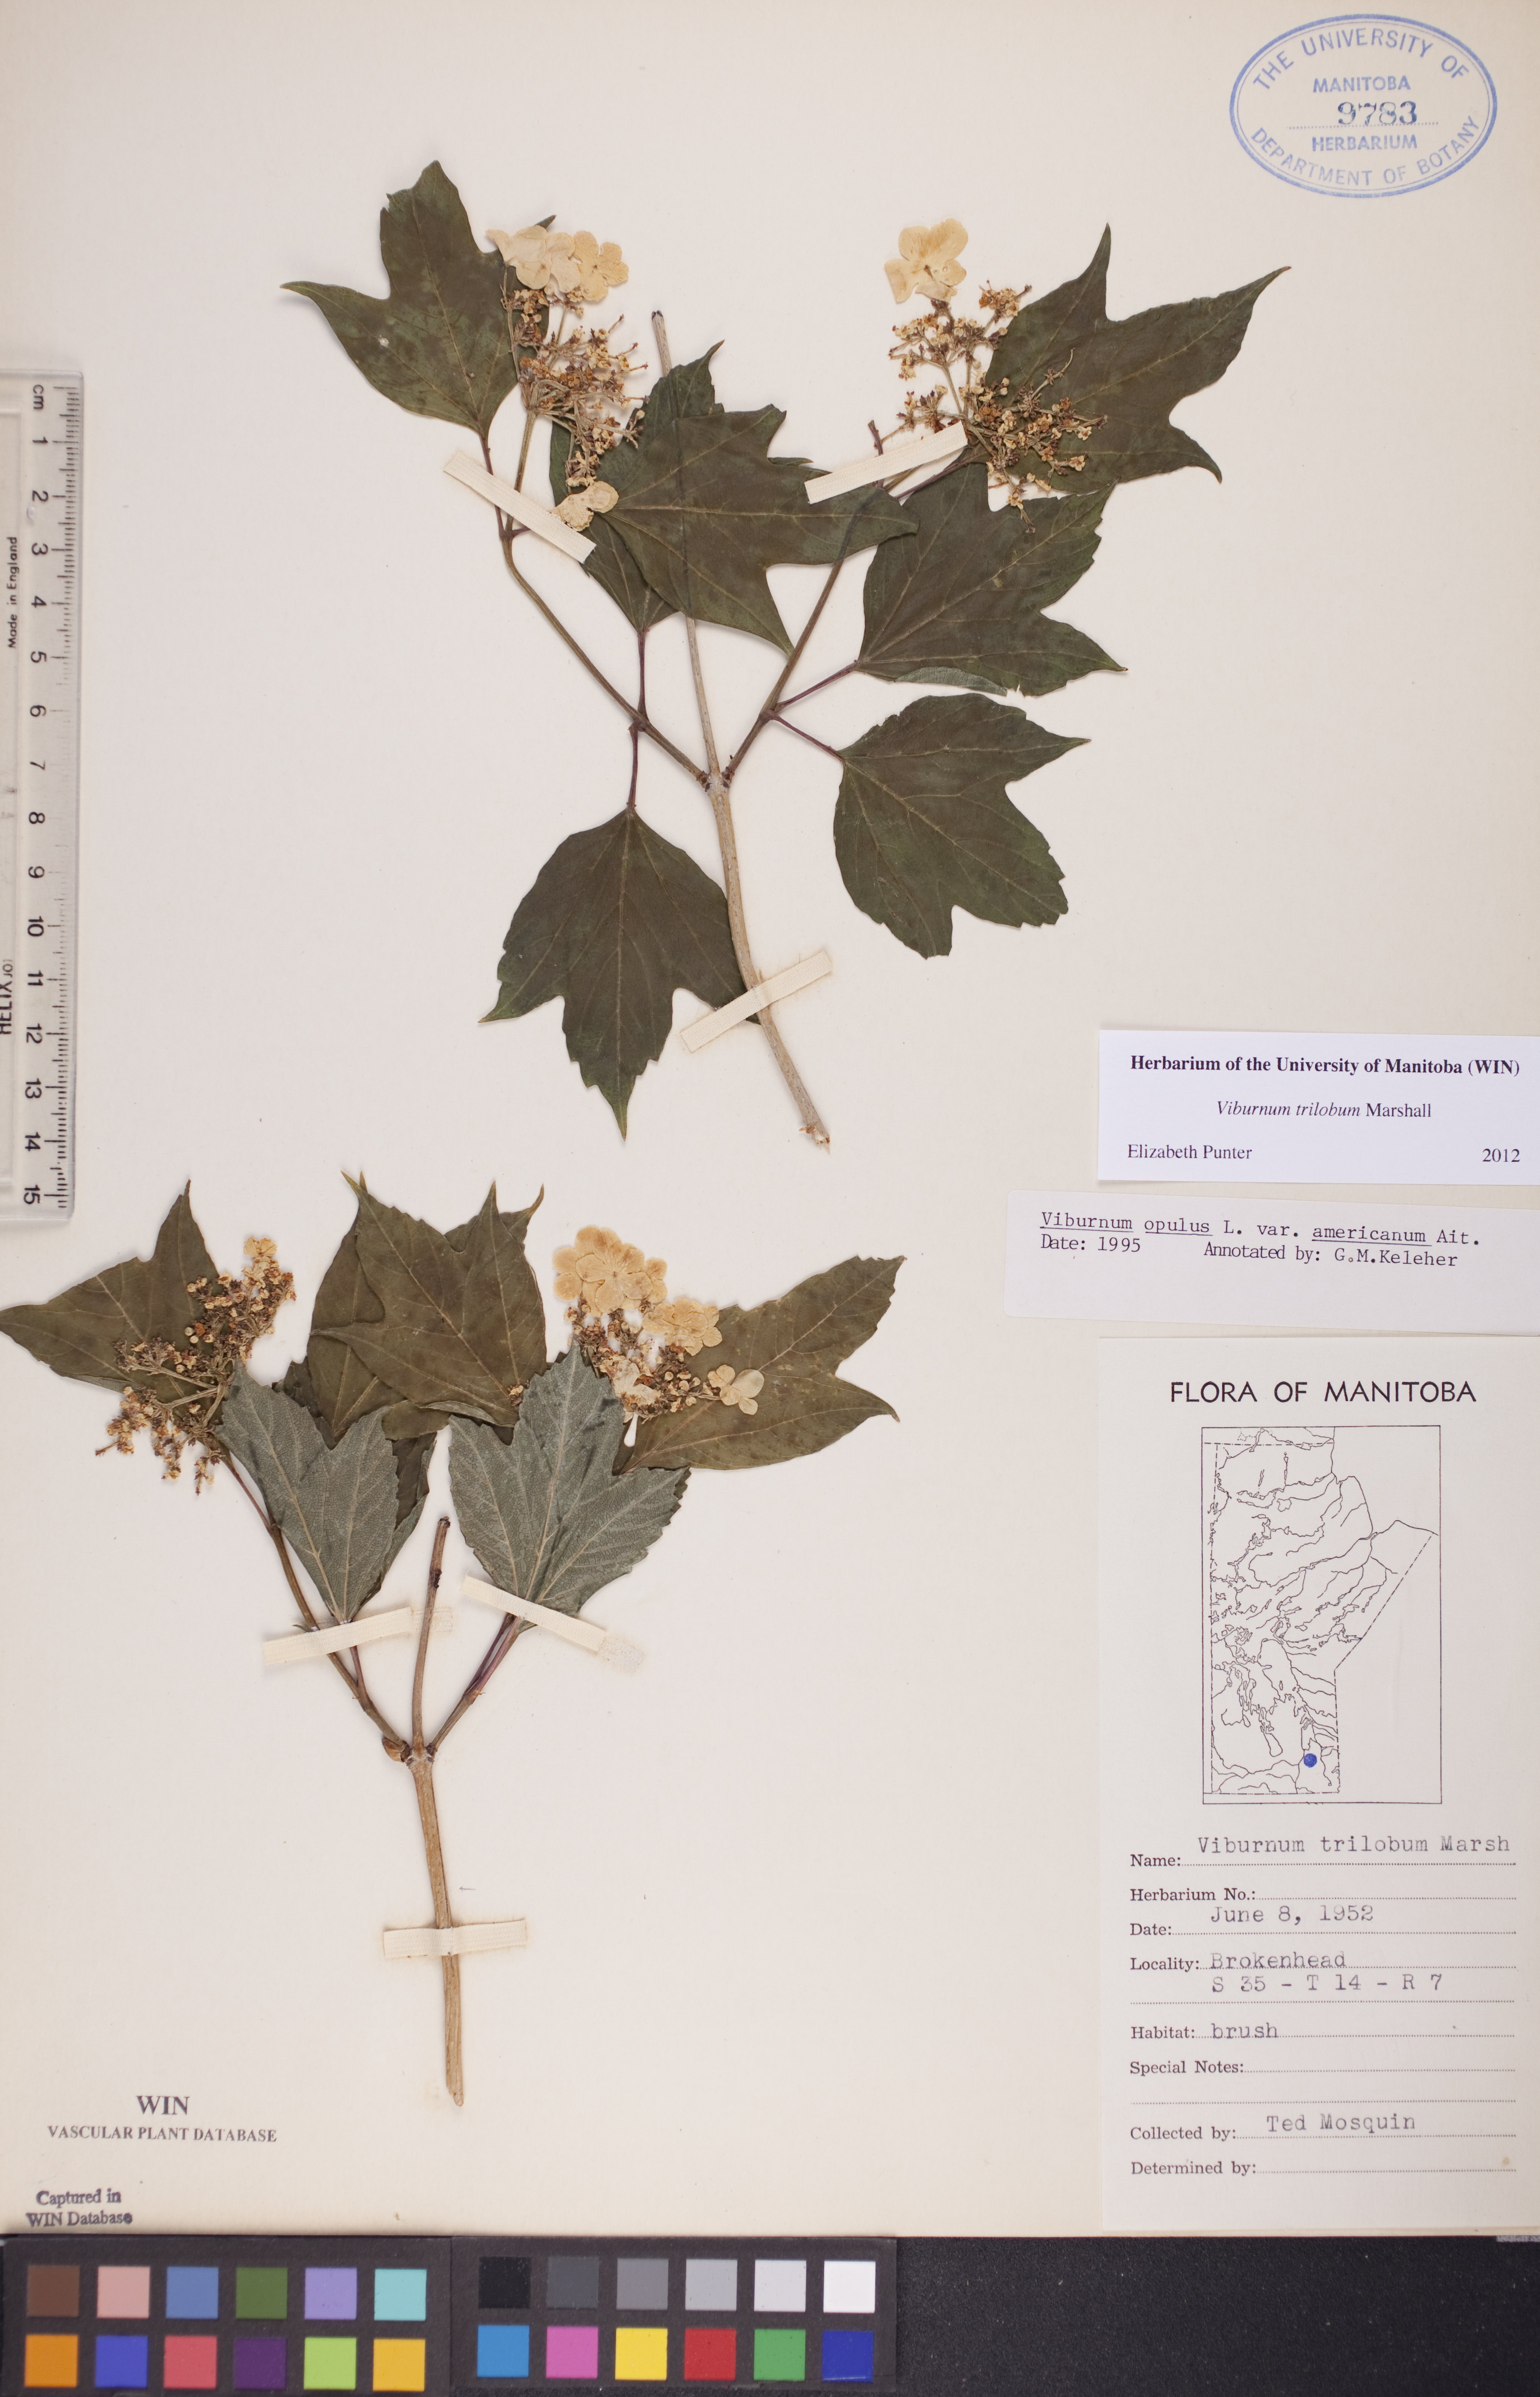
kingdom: Plantae
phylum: Tracheophyta
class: Magnoliopsida
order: Dipsacales
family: Viburnaceae
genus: Viburnum
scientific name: Viburnum trilobum
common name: American cranberrybush
